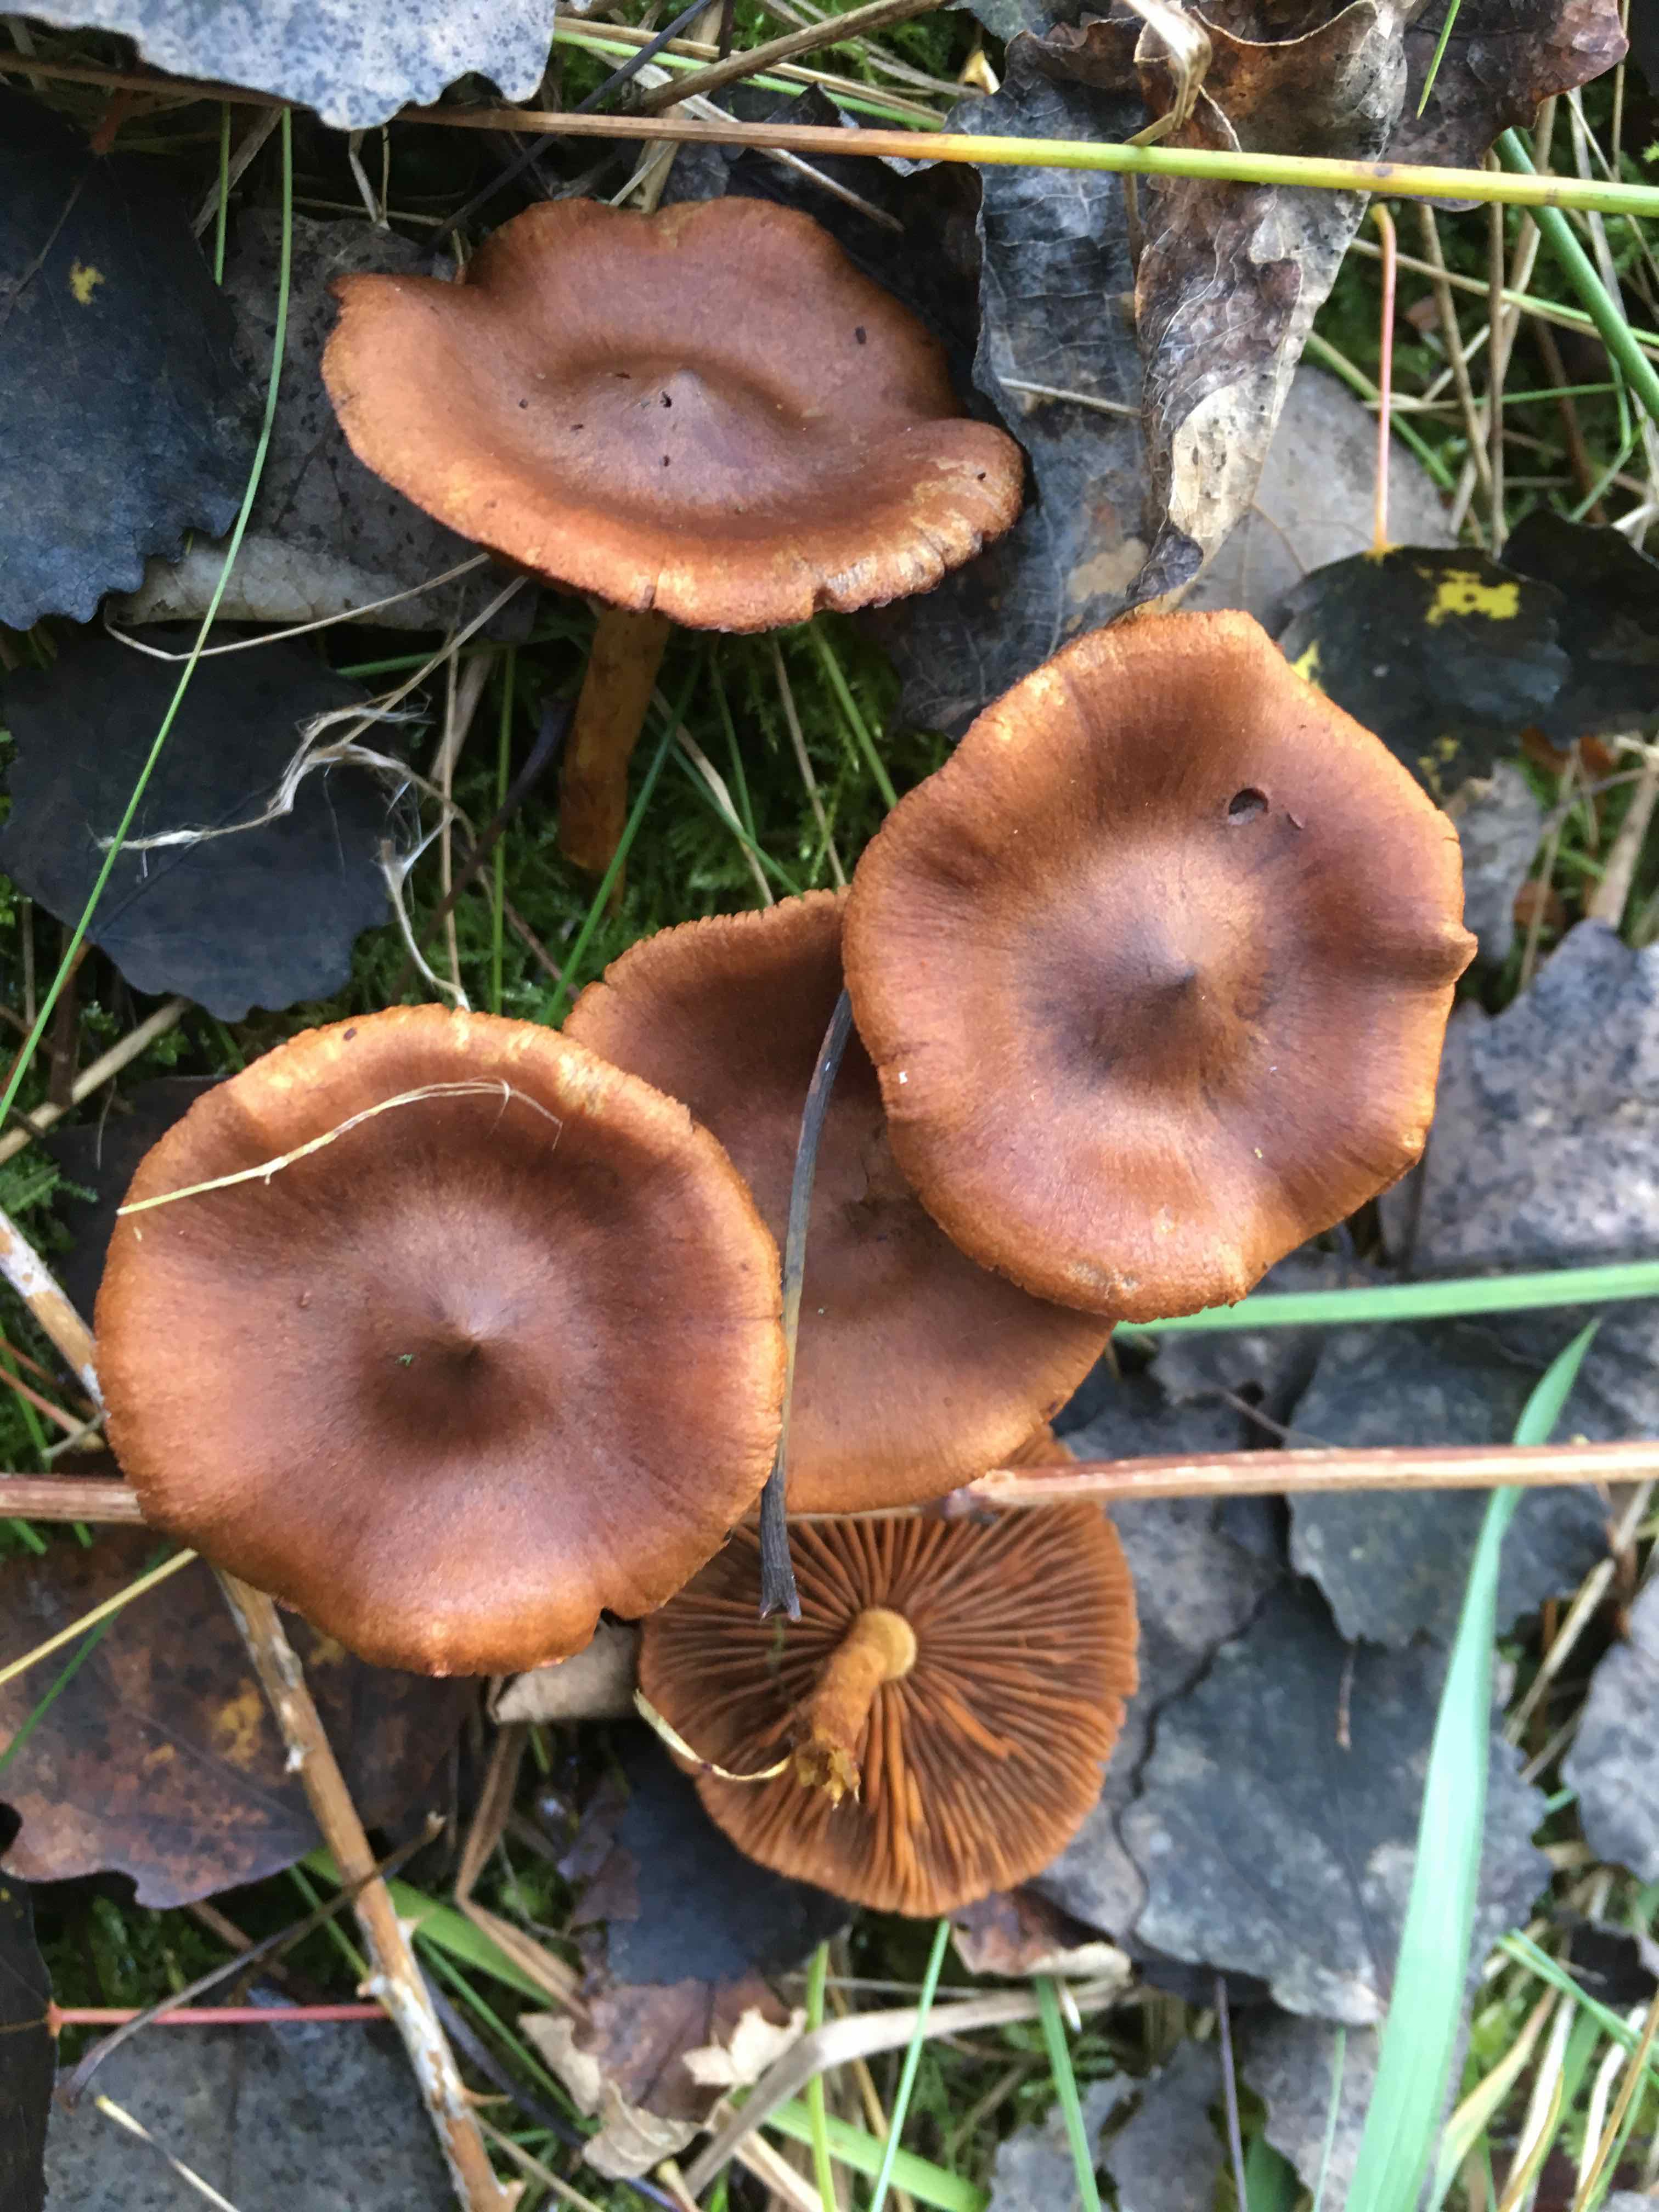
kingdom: Fungi
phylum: Basidiomycota
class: Agaricomycetes
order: Agaricales
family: Cortinariaceae
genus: Cortinarius
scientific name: Cortinarius cinnamomeus
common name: kanel-slørhat
